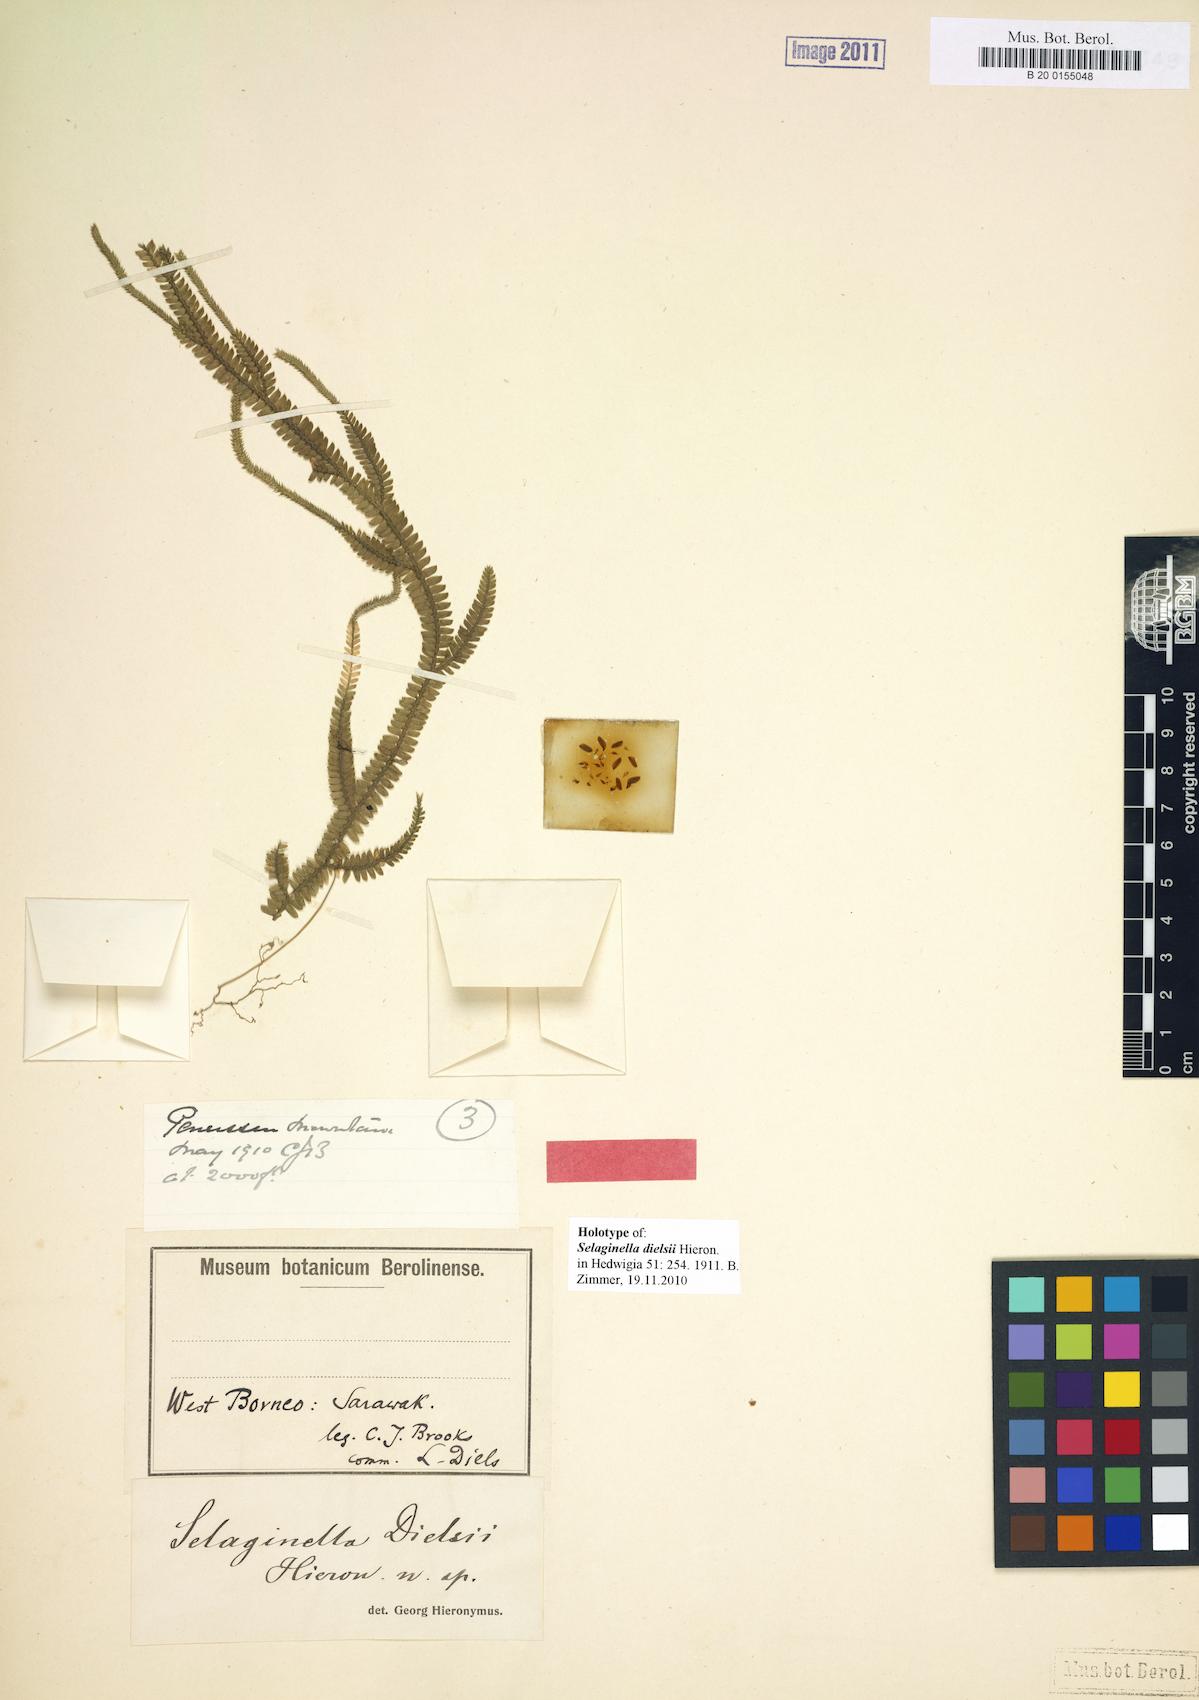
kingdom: Plantae
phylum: Tracheophyta
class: Lycopodiopsida
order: Selaginellales
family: Selaginellaceae
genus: Selaginella
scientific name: Selaginella dielsii
